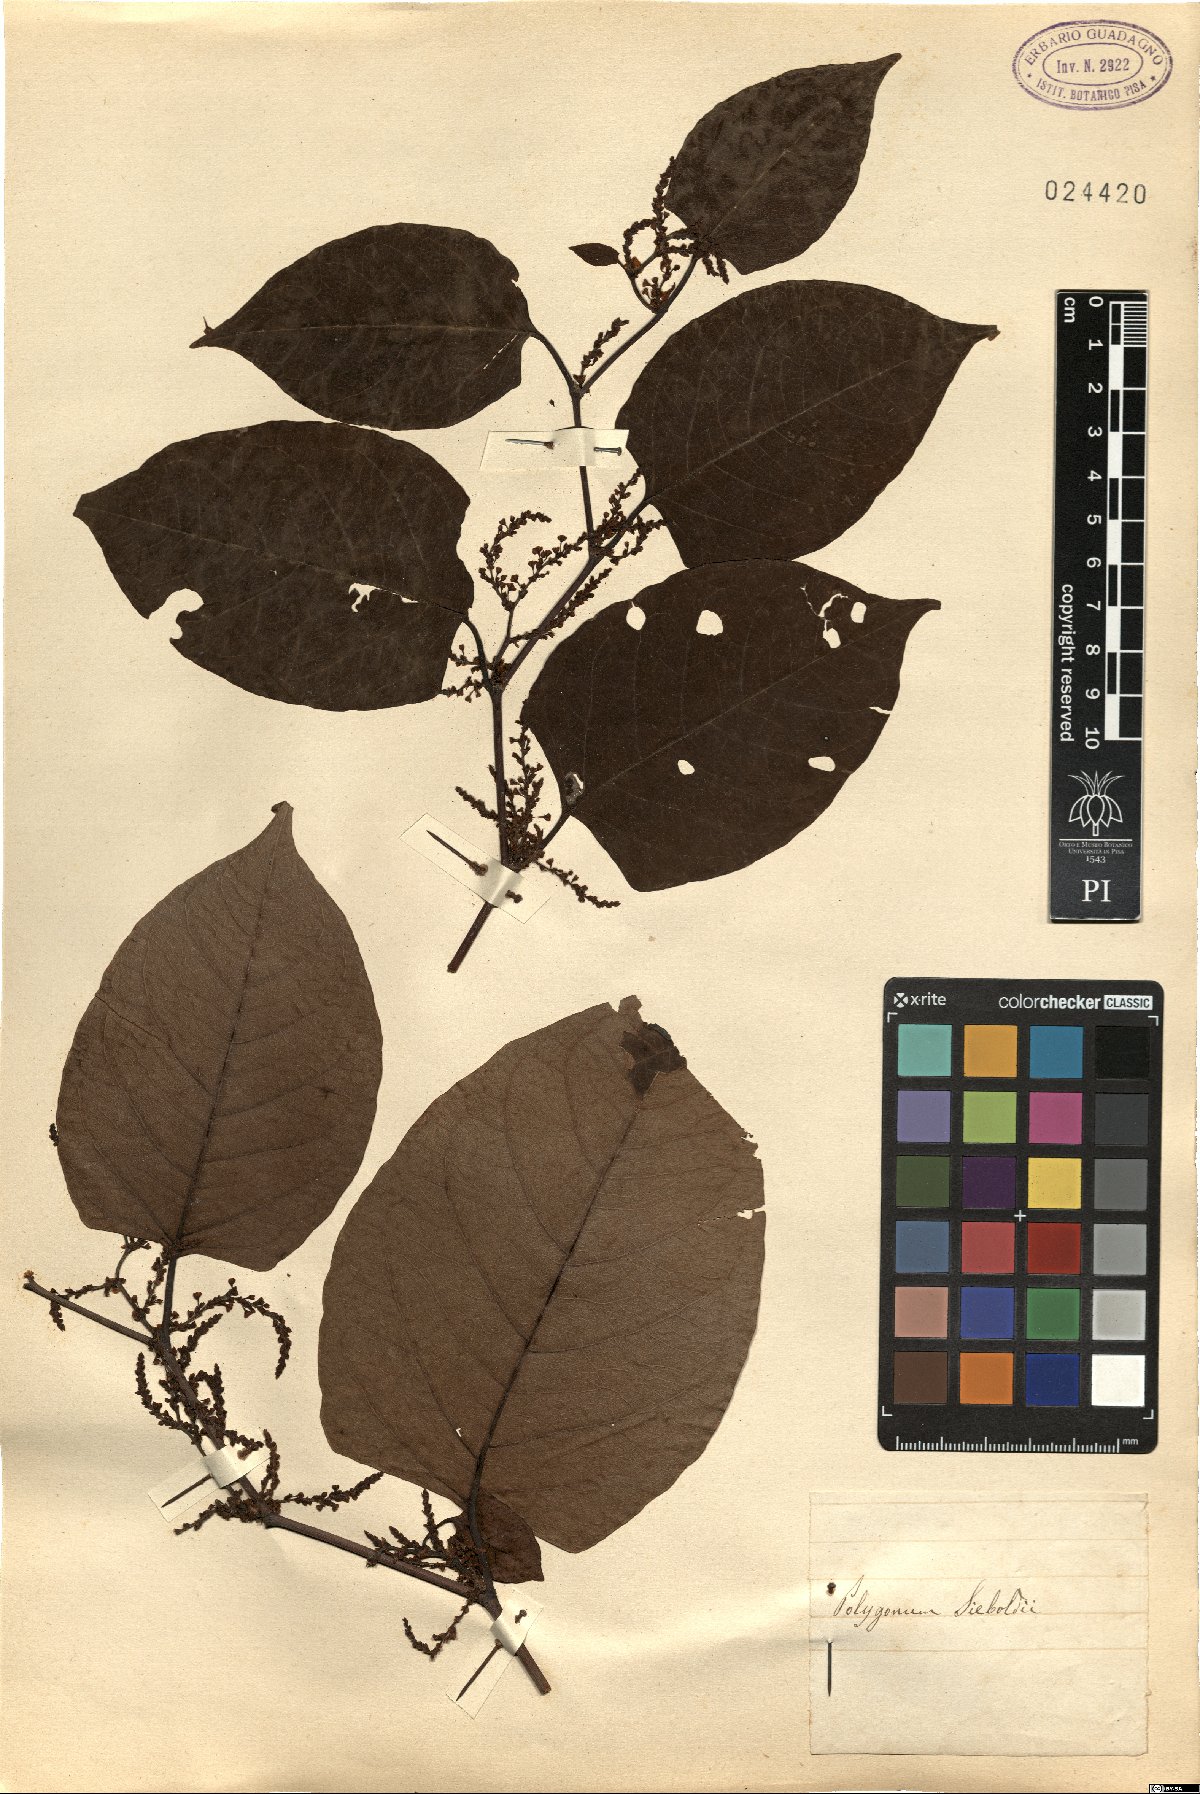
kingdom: Plantae
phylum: Tracheophyta
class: Magnoliopsida
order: Caryophyllales
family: Polygonaceae
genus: Persicaria
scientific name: Persicaria sagittata
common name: American tearthumb
